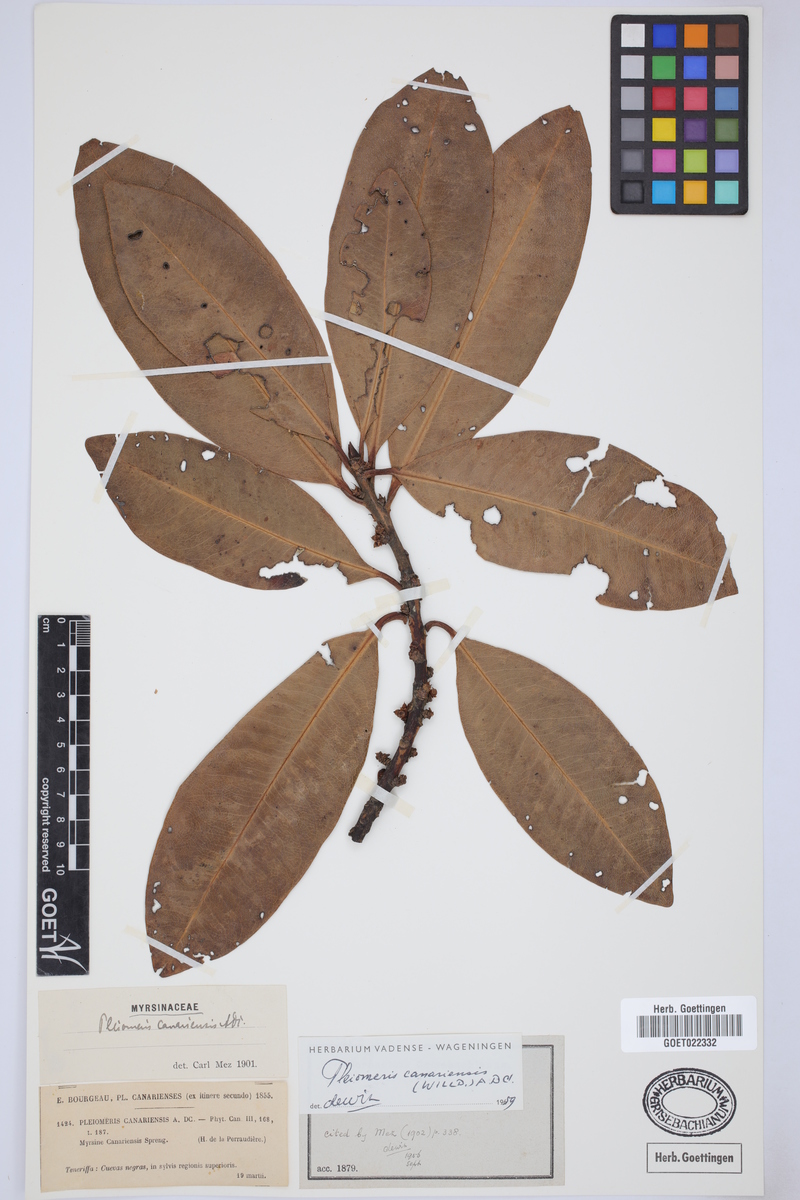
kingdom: Plantae
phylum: Tracheophyta
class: Magnoliopsida
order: Ericales
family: Primulaceae
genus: Pleiomeris
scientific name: Pleiomeris canariensis
